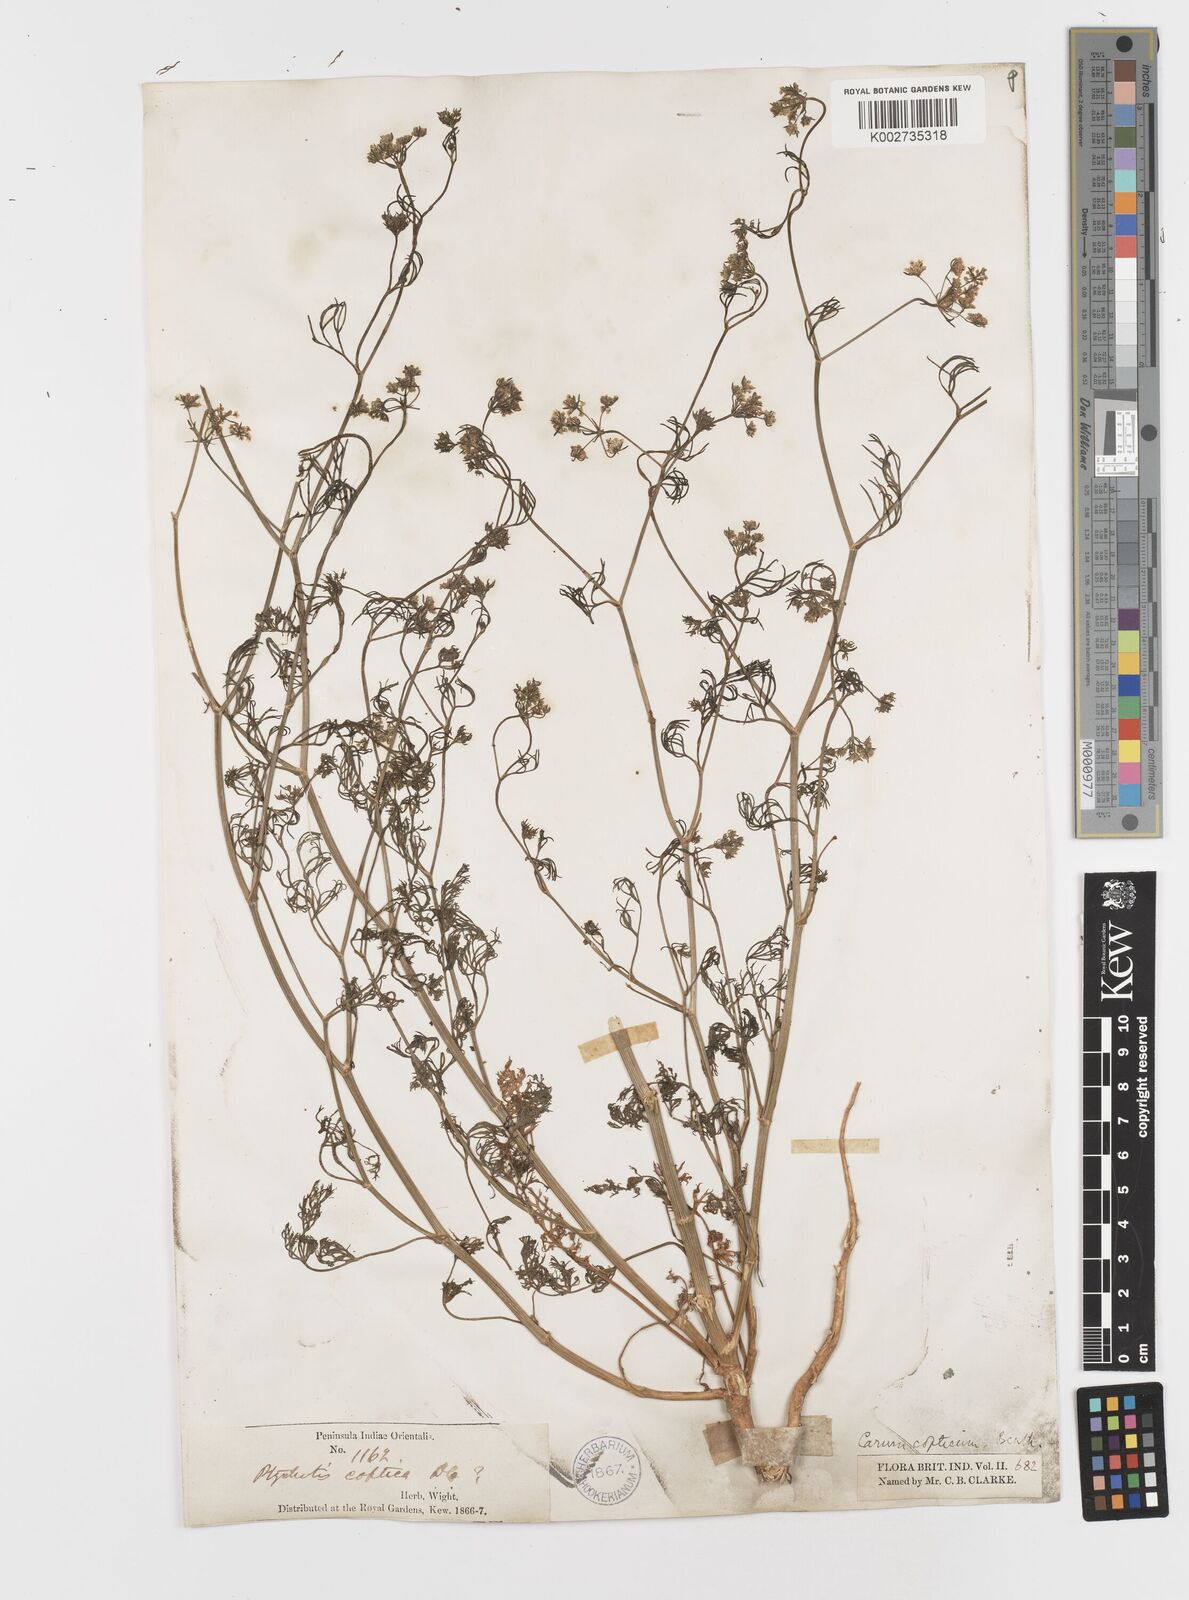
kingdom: Plantae
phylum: Tracheophyta
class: Magnoliopsida
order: Apiales
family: Apiaceae
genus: Trachyspermum
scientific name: Trachyspermum ammi
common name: Ajowan
